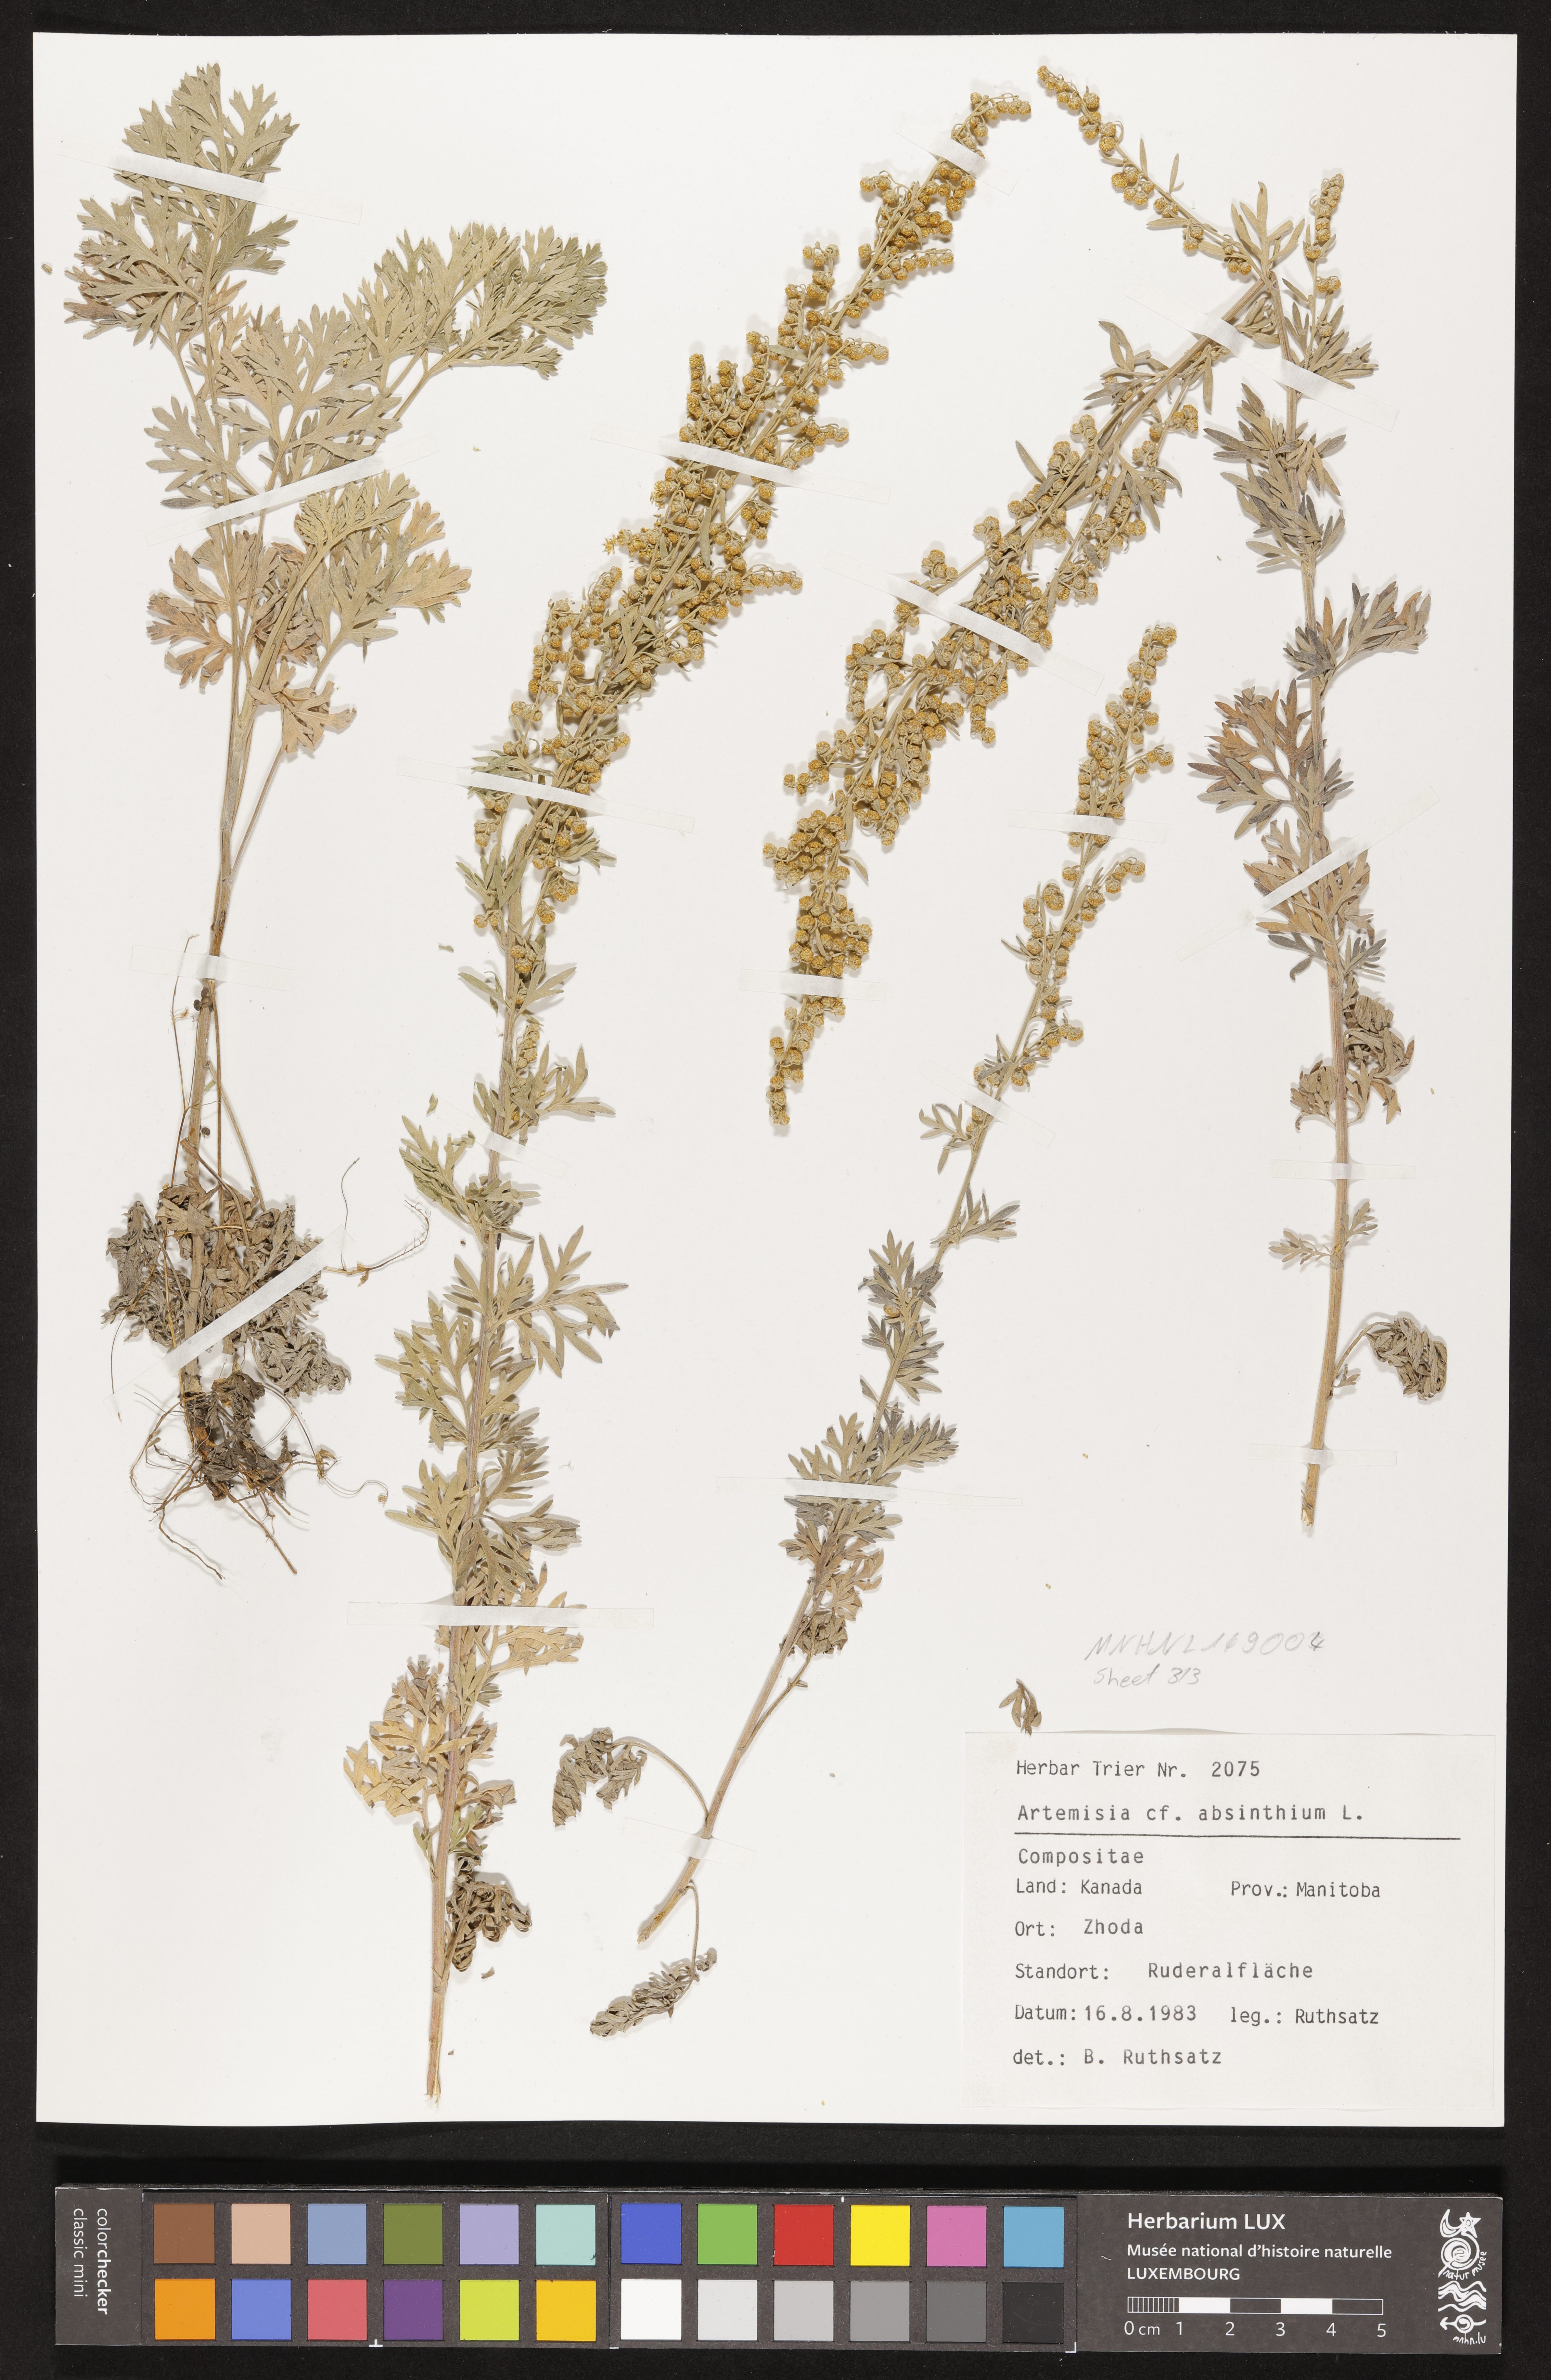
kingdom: Plantae
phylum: Tracheophyta
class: Magnoliopsida
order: Asterales
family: Asteraceae
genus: Artemisia
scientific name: Artemisia absinthium
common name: Wormwood
